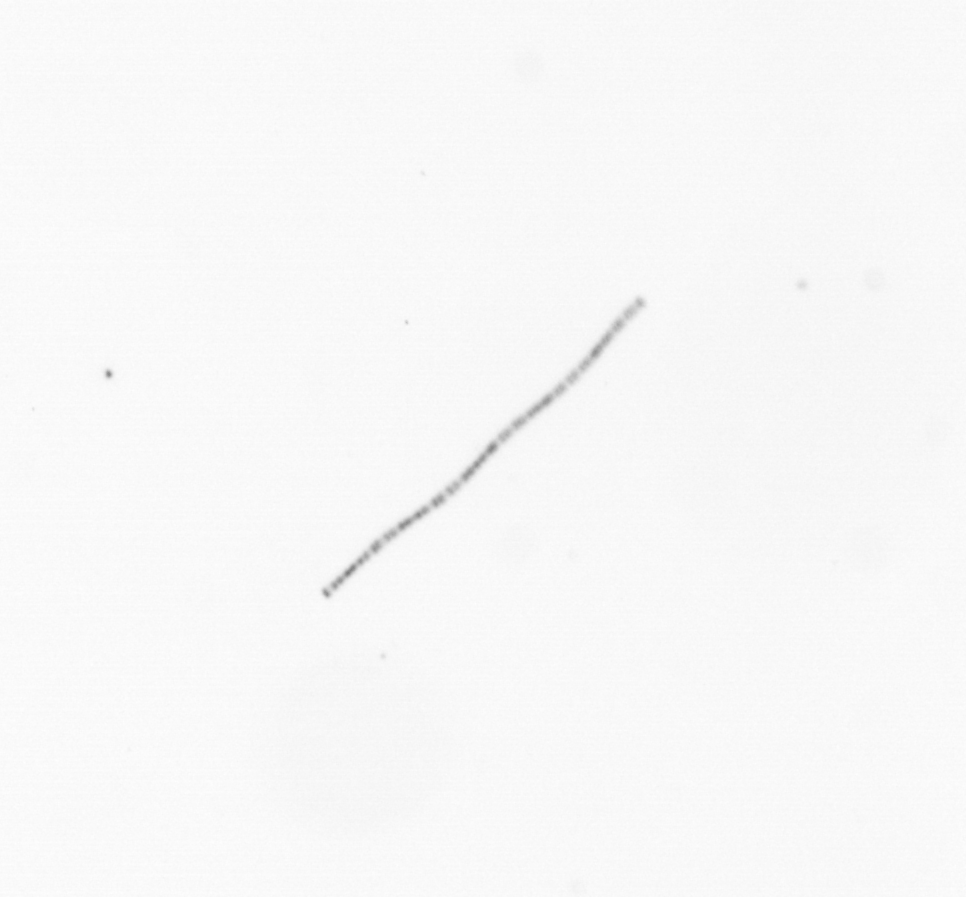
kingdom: Chromista
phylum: Ochrophyta
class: Bacillariophyceae
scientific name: Bacillariophyceae
